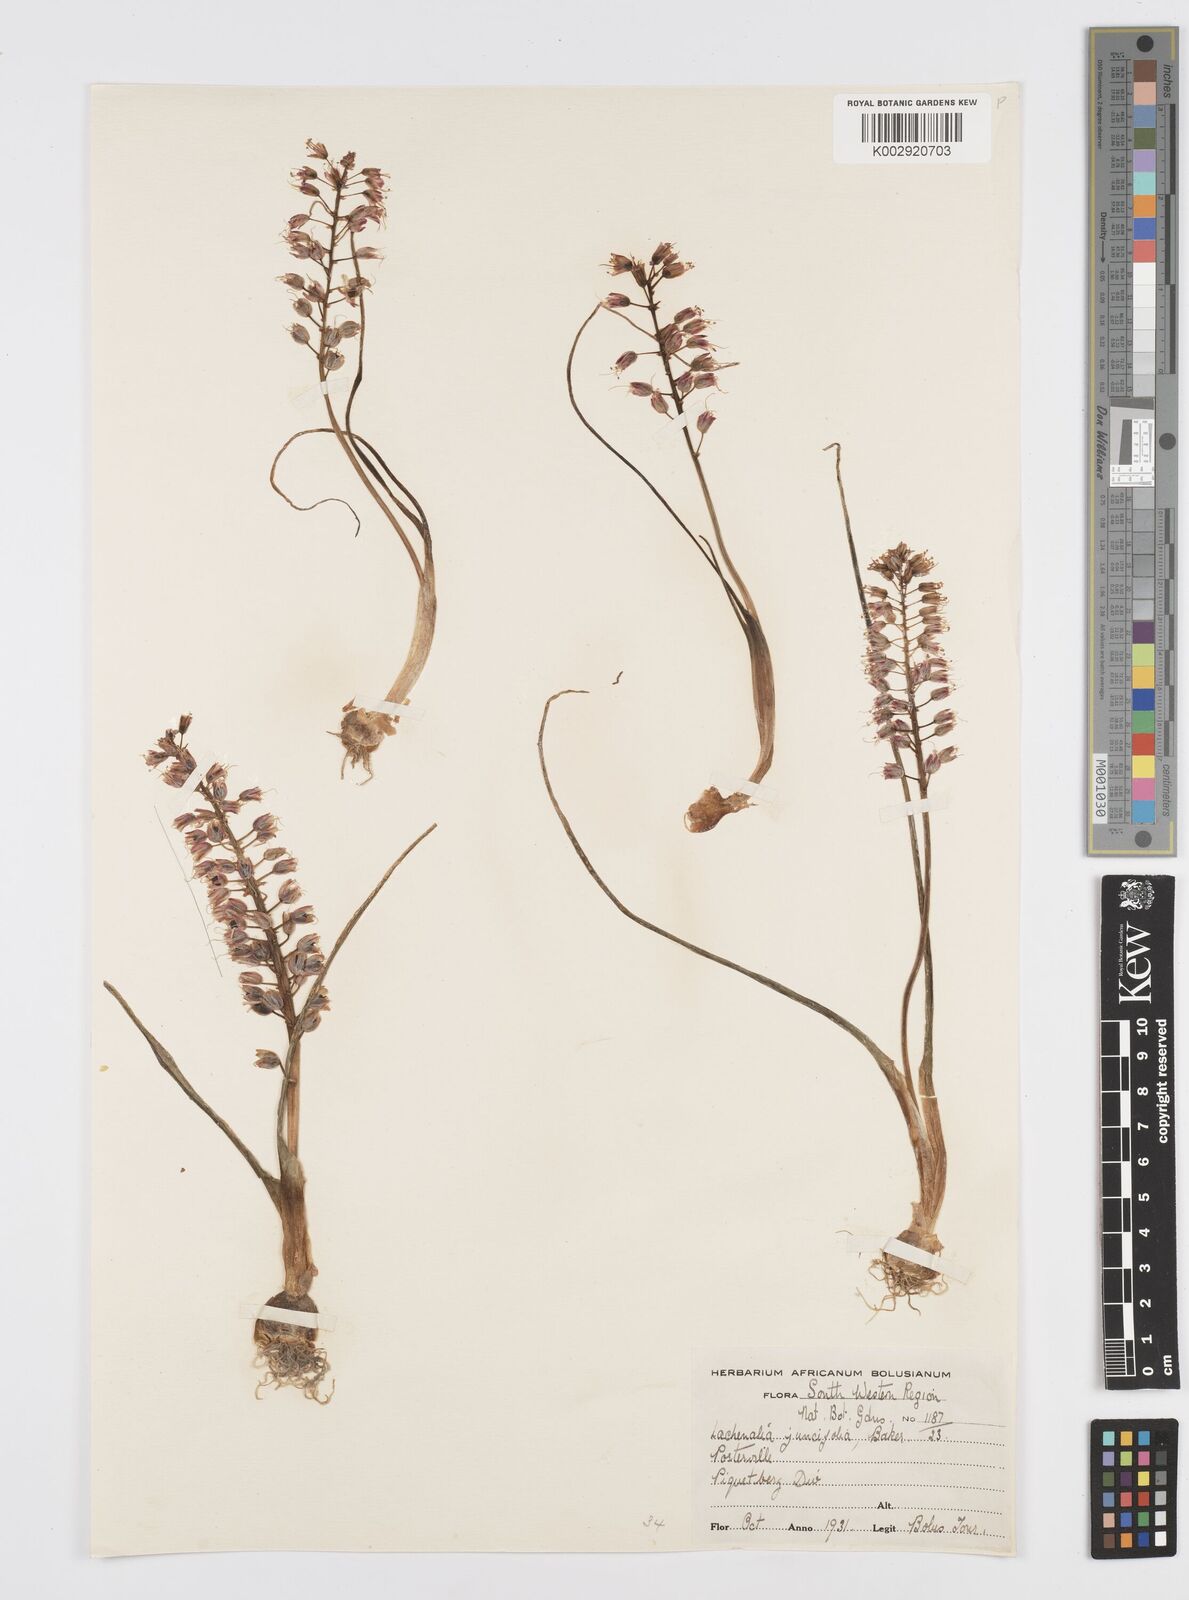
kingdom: Plantae
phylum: Tracheophyta
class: Liliopsida
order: Asparagales
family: Asparagaceae
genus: Lachenalia
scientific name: Lachenalia juncifolia
